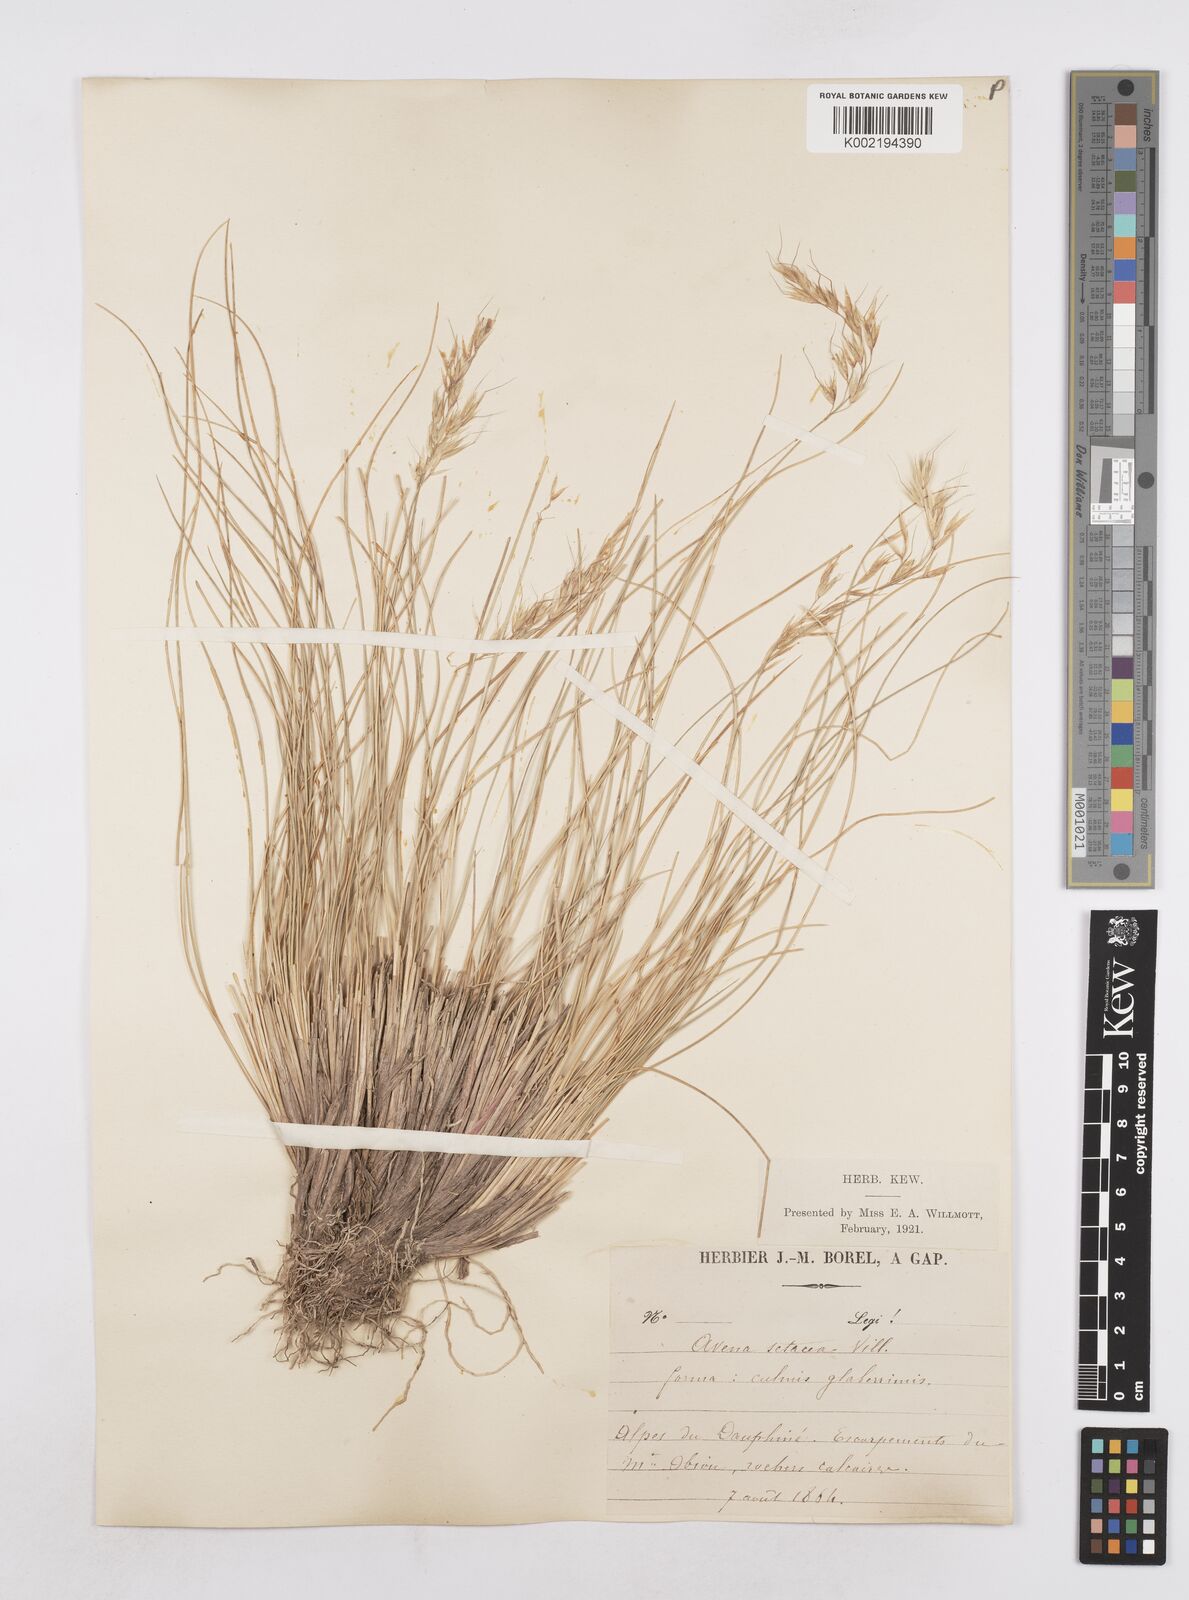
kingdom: Plantae
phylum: Tracheophyta
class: Liliopsida
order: Poales
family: Poaceae
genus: Helictotrichon
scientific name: Helictotrichon setaceum
